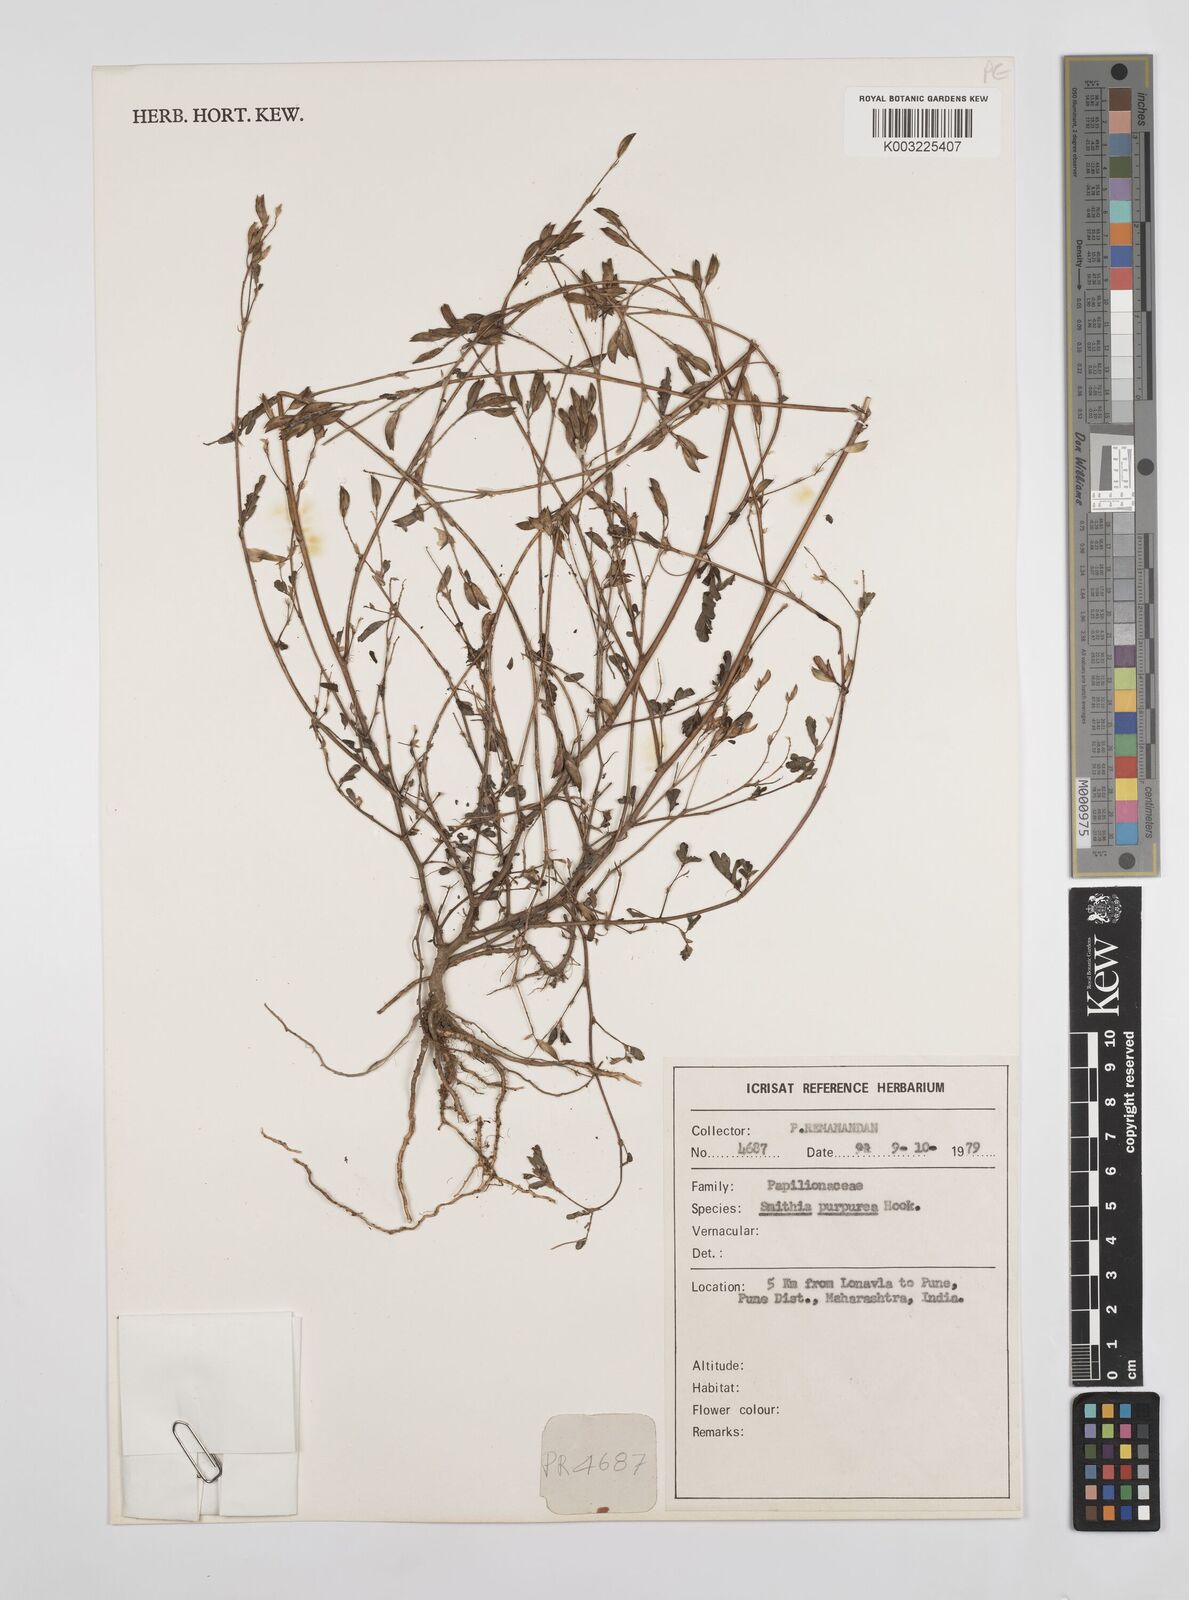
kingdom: Plantae
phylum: Tracheophyta
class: Magnoliopsida
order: Fabales
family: Fabaceae
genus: Smithia
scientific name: Smithia purpurea
